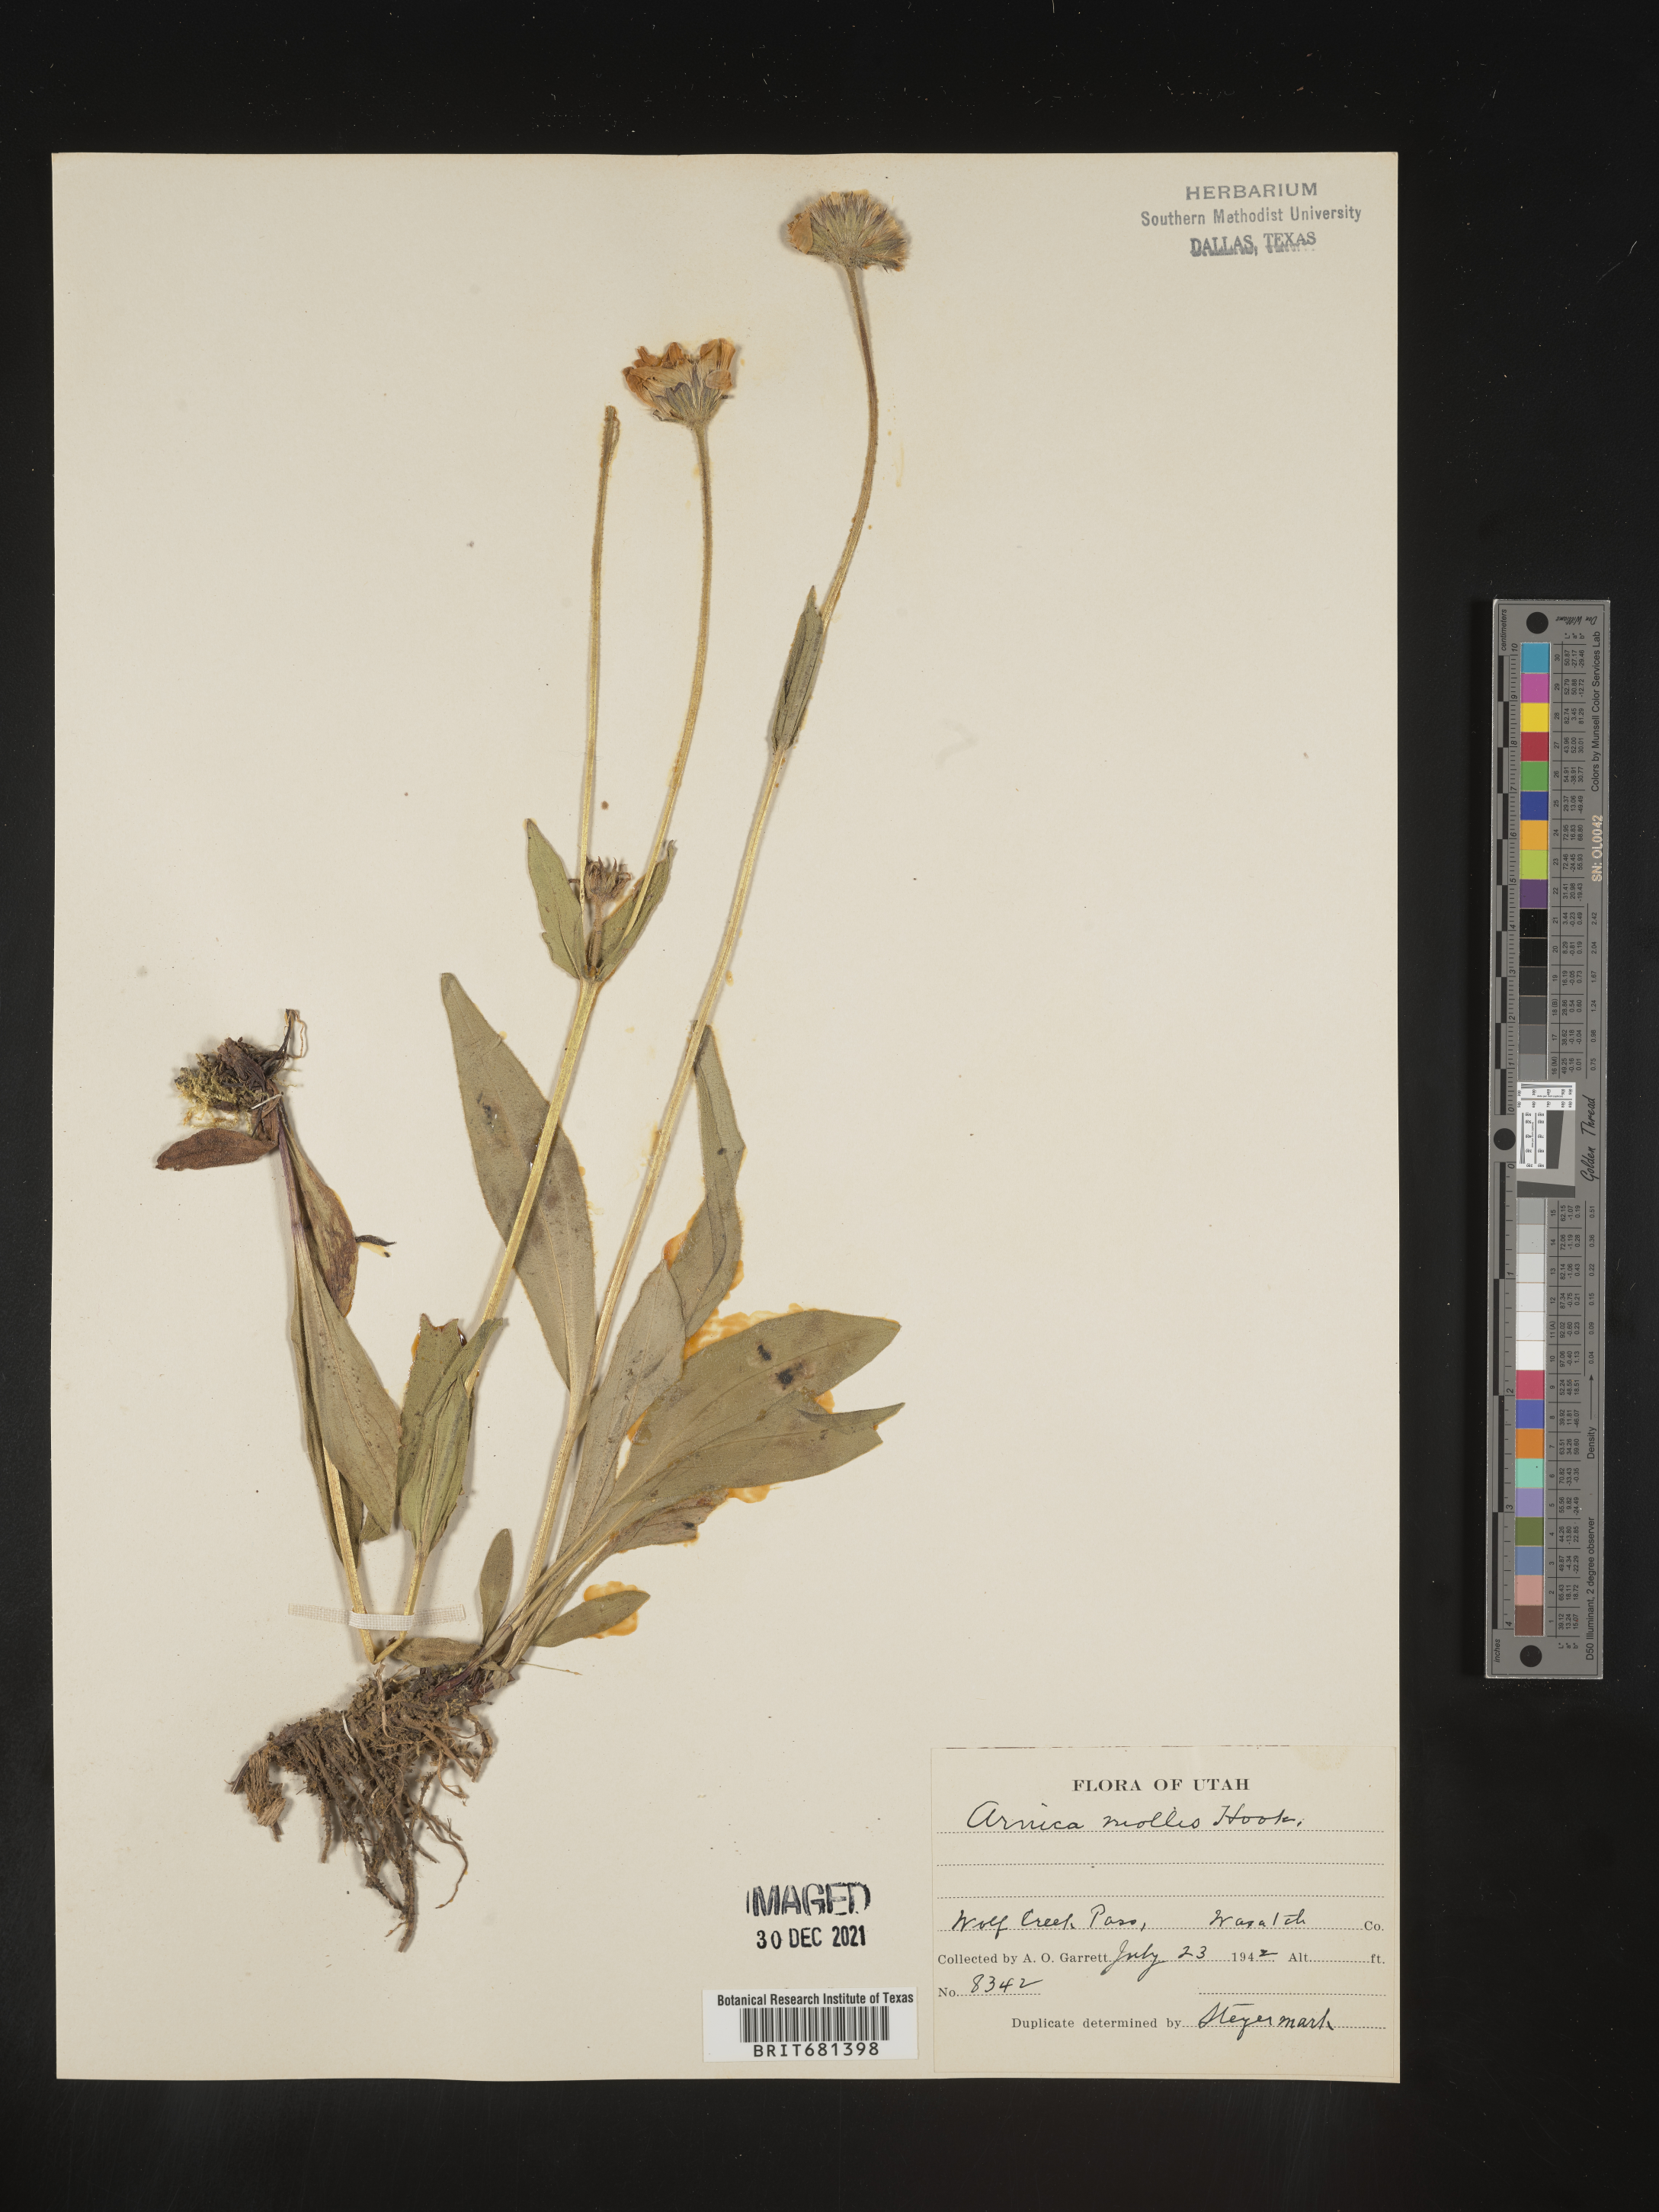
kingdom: Plantae
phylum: Tracheophyta
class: Magnoliopsida
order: Asterales
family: Asteraceae
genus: Arnica
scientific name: Arnica mollis
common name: Hairy arnica
